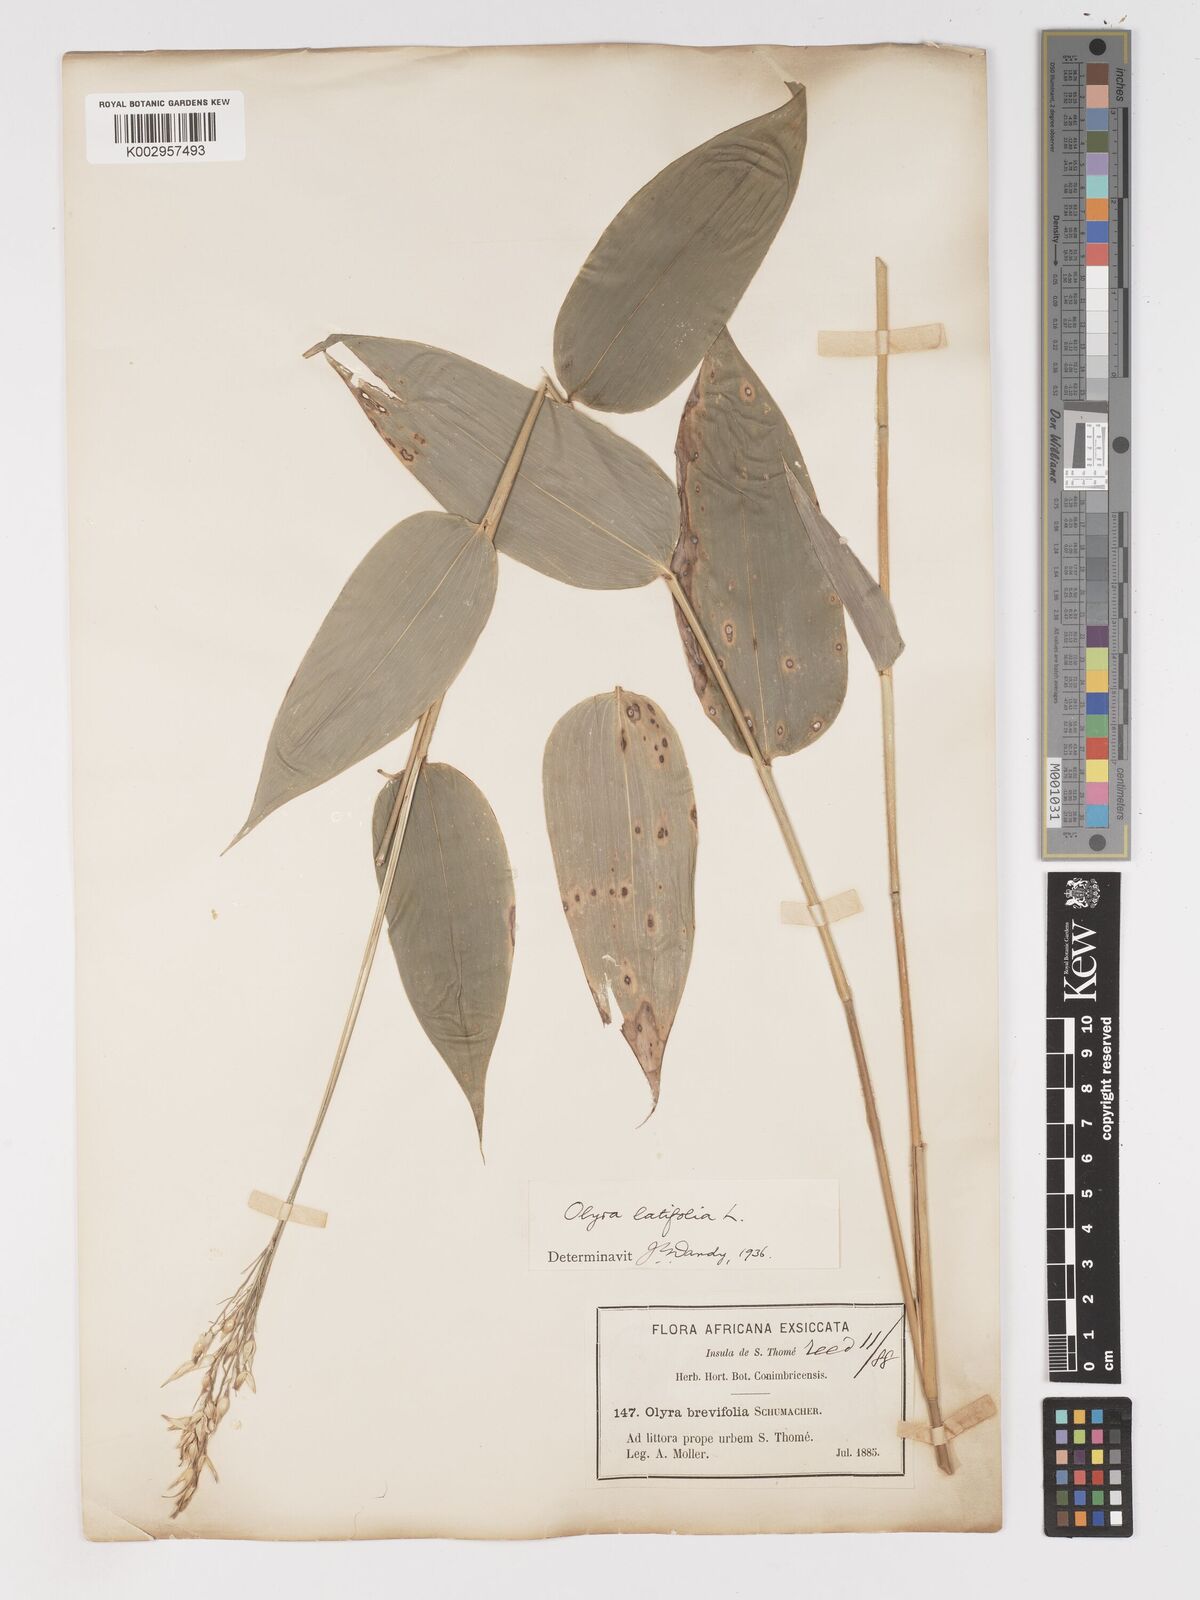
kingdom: Plantae
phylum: Tracheophyta
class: Liliopsida
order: Poales
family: Poaceae
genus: Olyra
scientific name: Olyra latifolia
